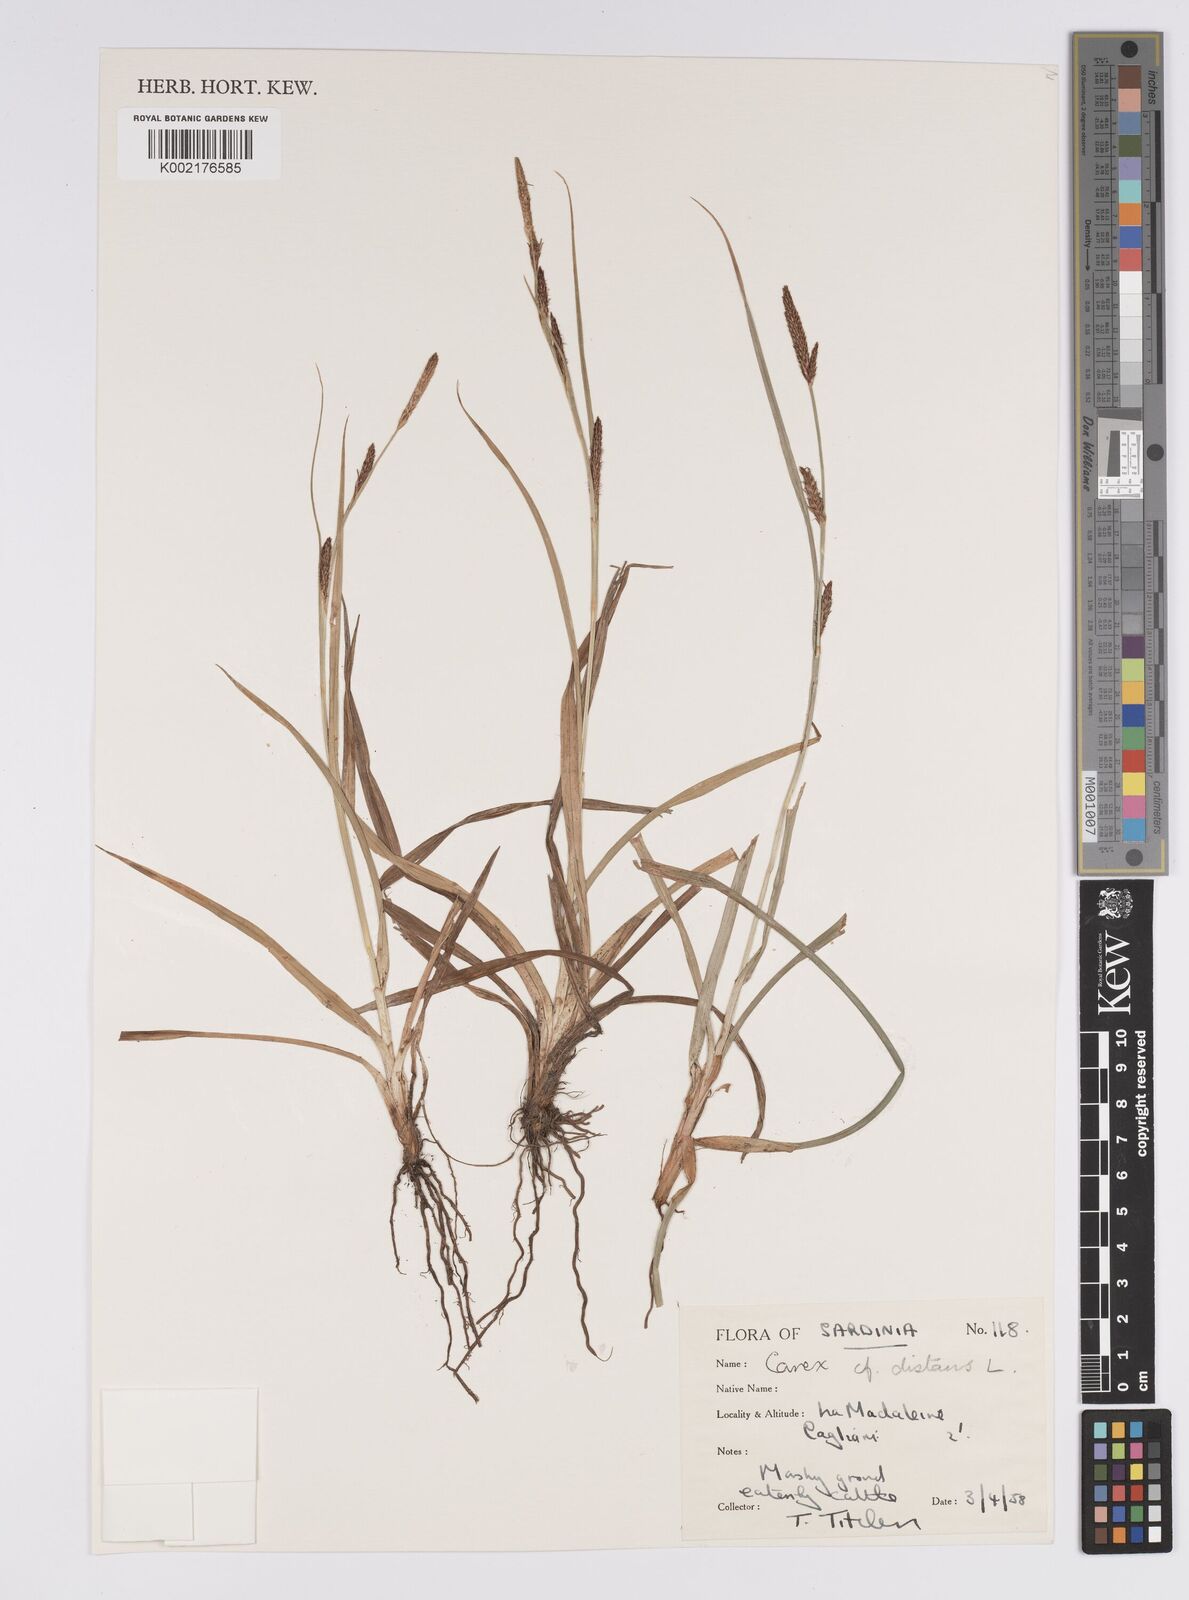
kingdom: Plantae
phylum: Tracheophyta
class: Liliopsida
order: Poales
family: Cyperaceae
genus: Carex
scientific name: Carex distans
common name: Distant sedge
